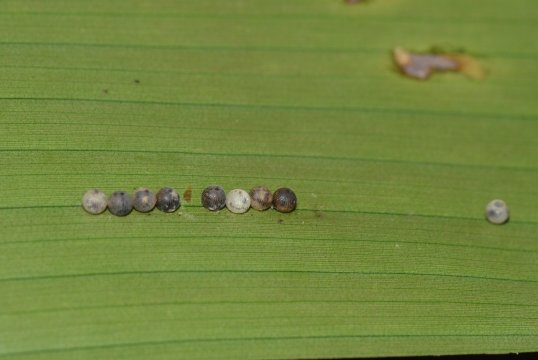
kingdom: Animalia
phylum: Arthropoda
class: Insecta
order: Lepidoptera
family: Nymphalidae
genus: Caligo
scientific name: Caligo
